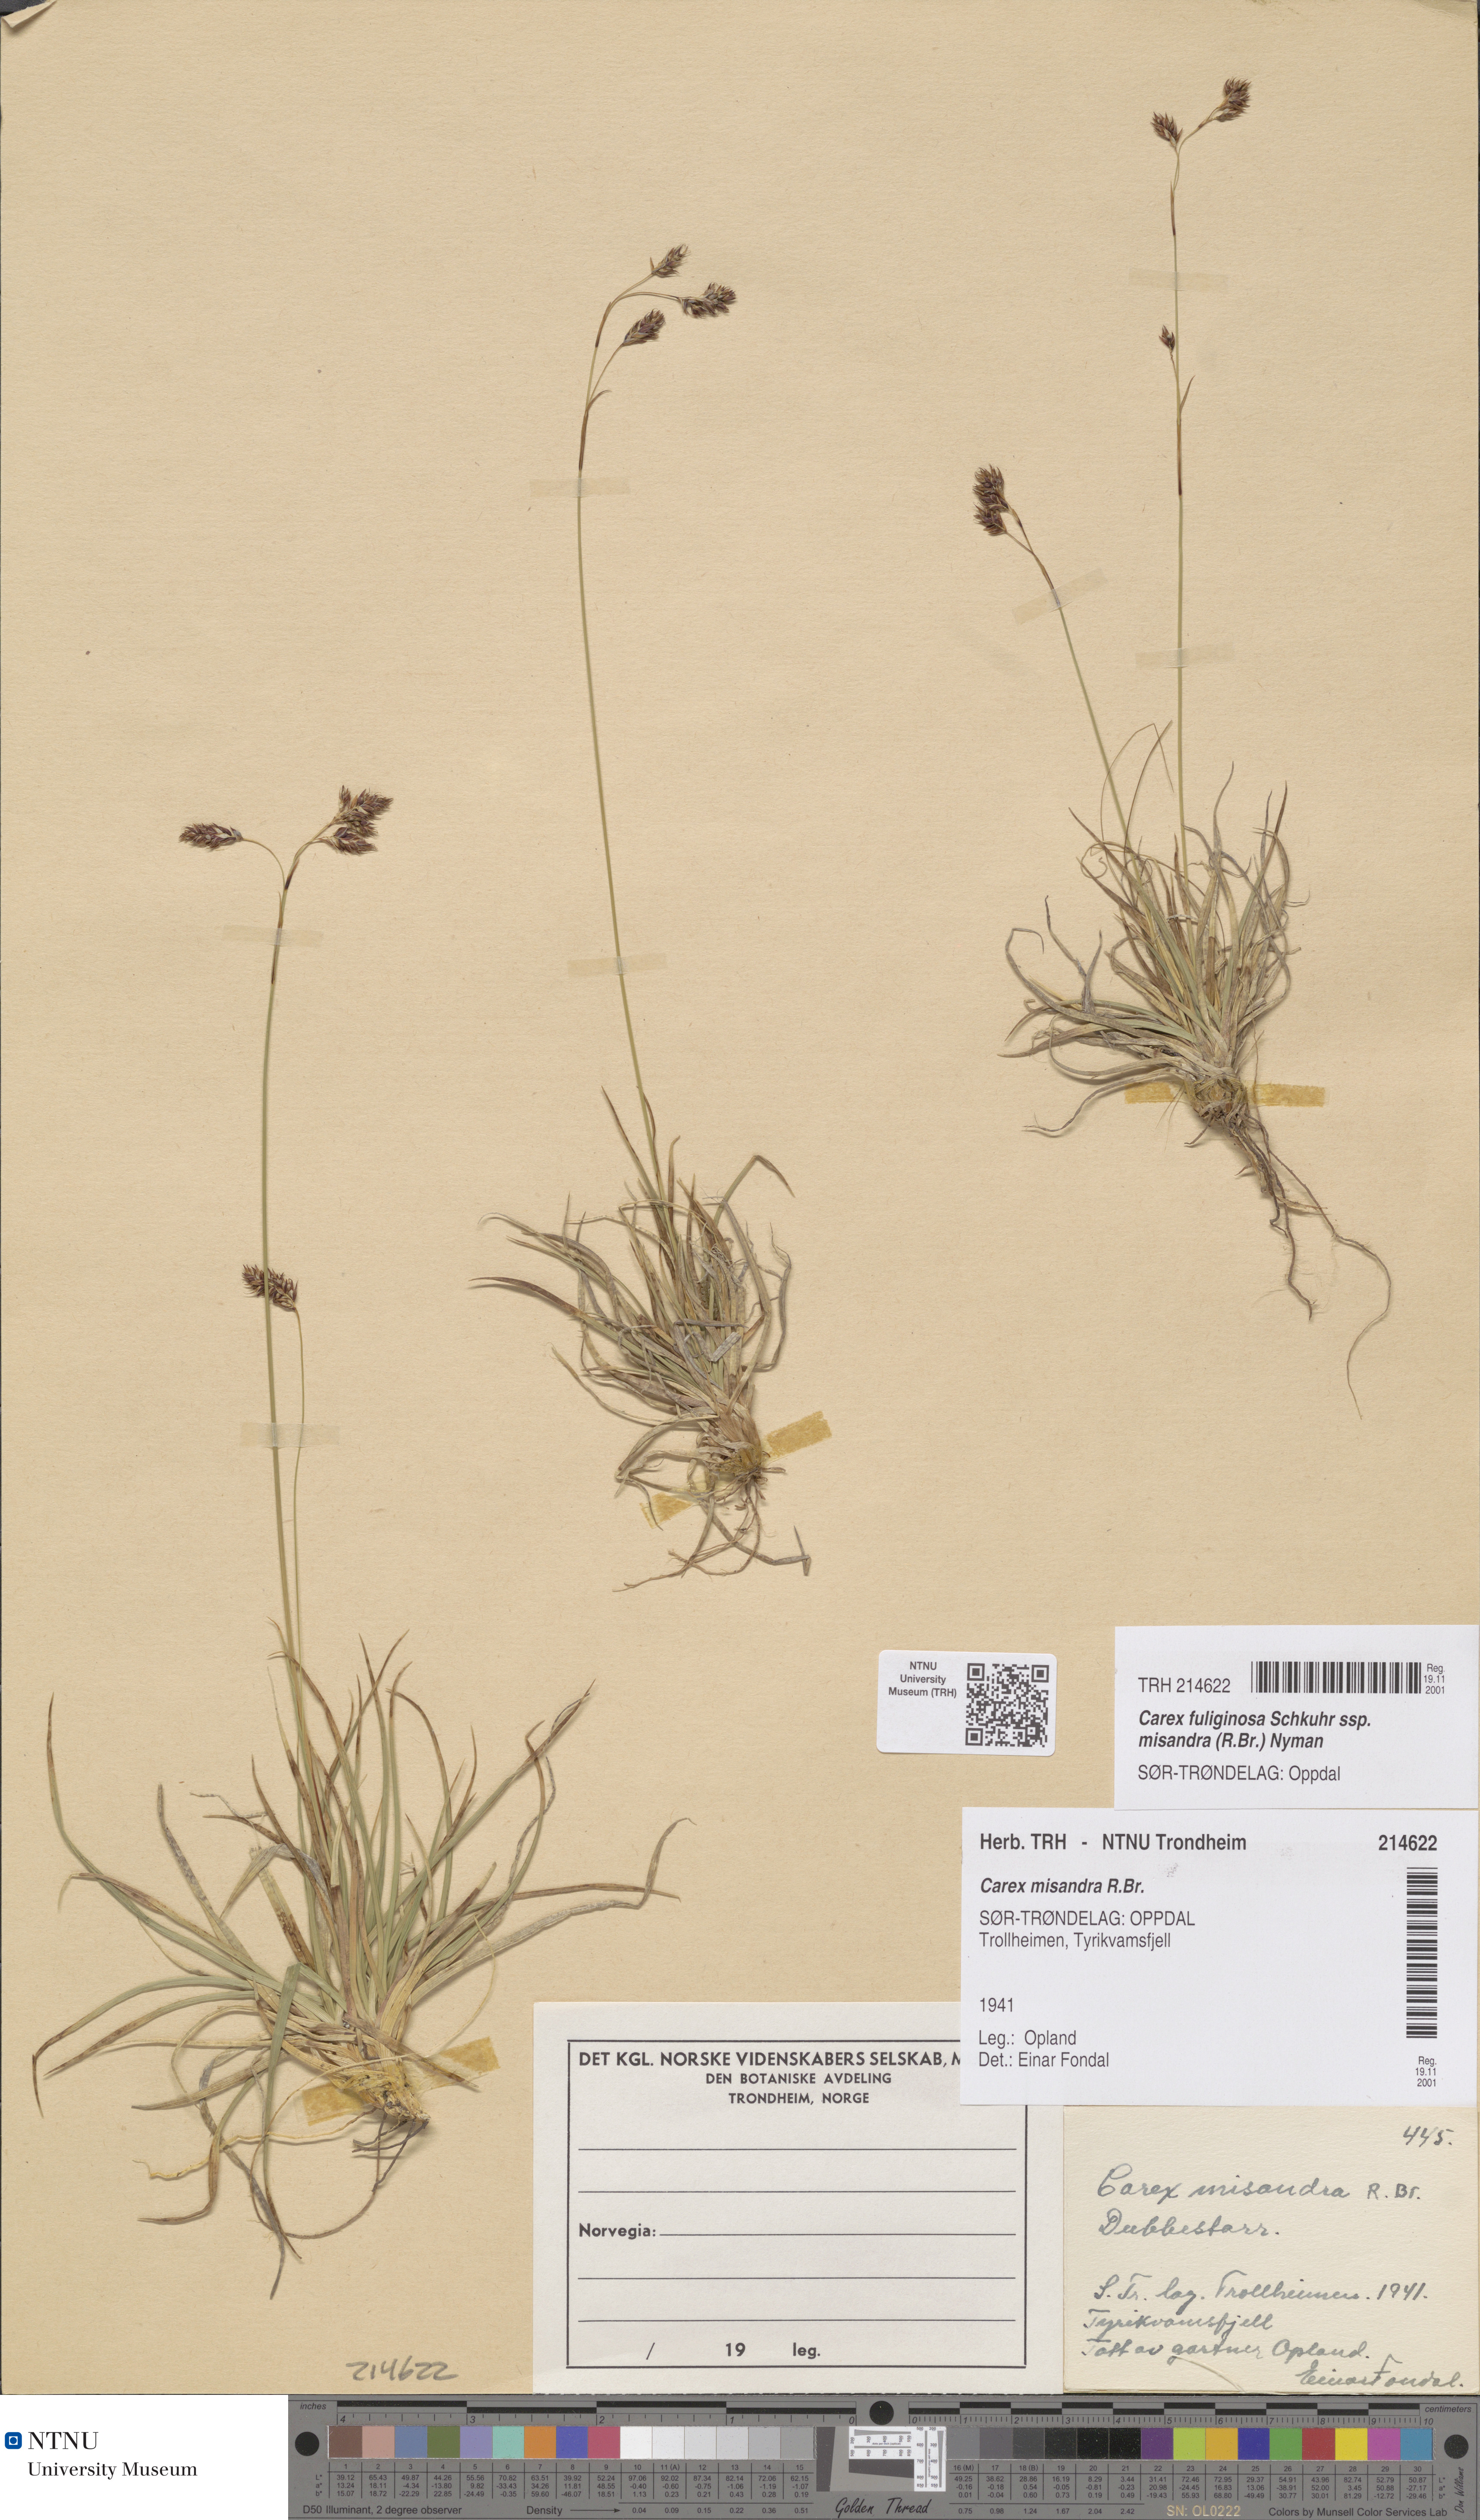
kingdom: Plantae
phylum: Tracheophyta
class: Liliopsida
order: Poales
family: Cyperaceae
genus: Carex
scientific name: Carex fuliginosa
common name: Few-flowered sedge
